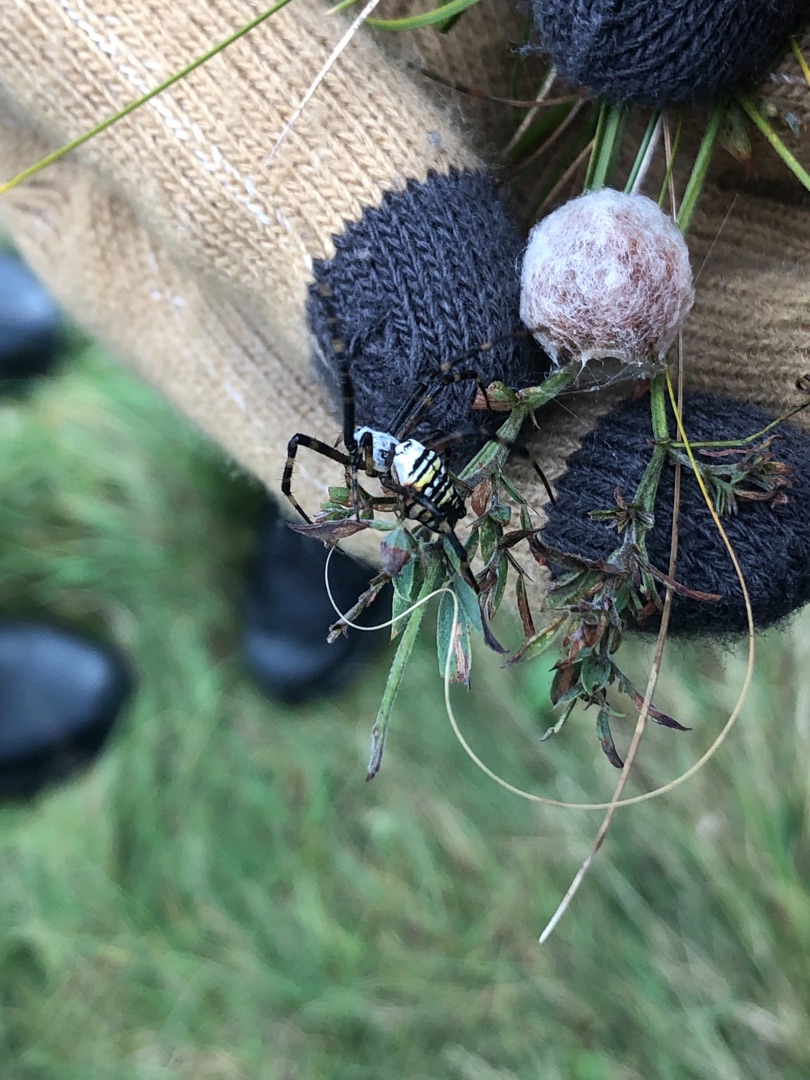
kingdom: Animalia
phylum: Arthropoda
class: Arachnida
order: Araneae
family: Araneidae
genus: Argiope
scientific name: Argiope bruennichi
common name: Hvepseedderkop
